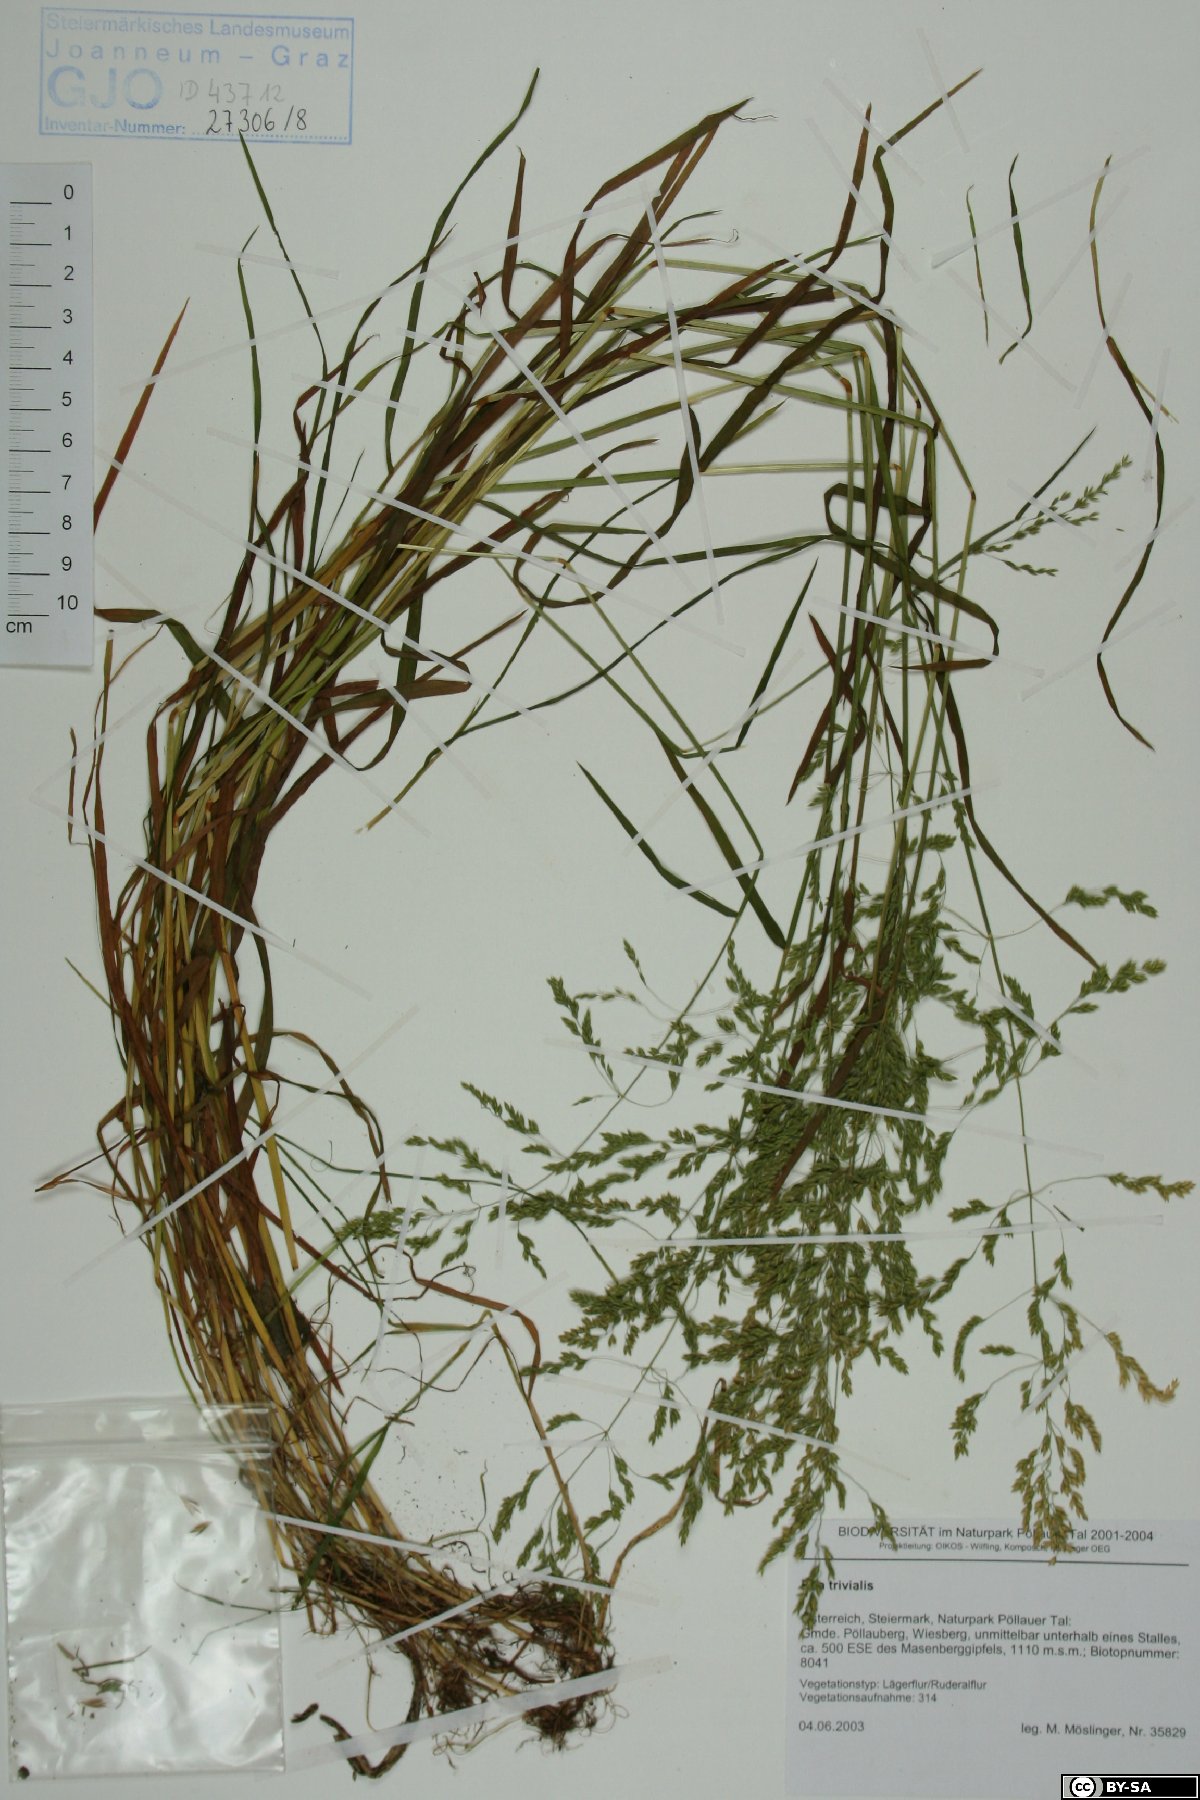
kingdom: Plantae
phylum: Tracheophyta
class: Liliopsida
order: Poales
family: Poaceae
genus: Poa
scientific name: Poa trivialis
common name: Rough bluegrass
